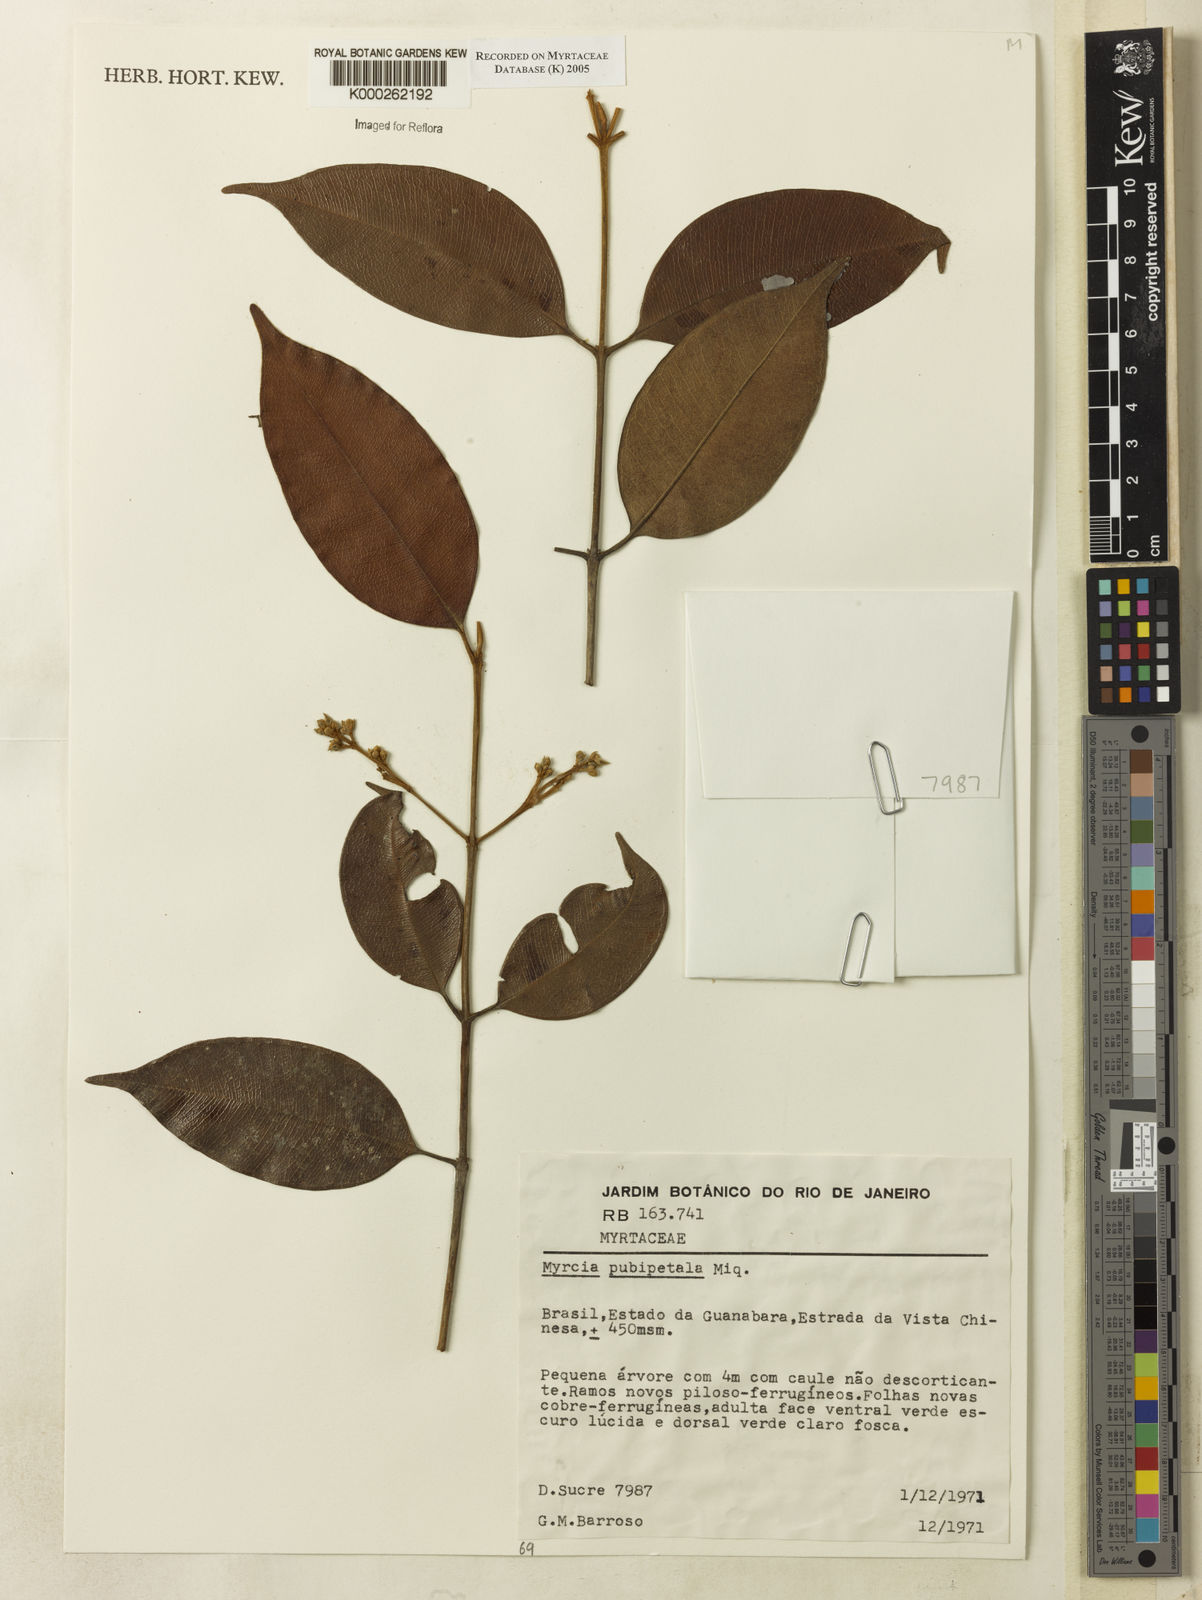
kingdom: Plantae
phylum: Tracheophyta
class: Magnoliopsida
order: Myrtales
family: Myrtaceae
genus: Myrcia
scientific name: Myrcia pubipetala
